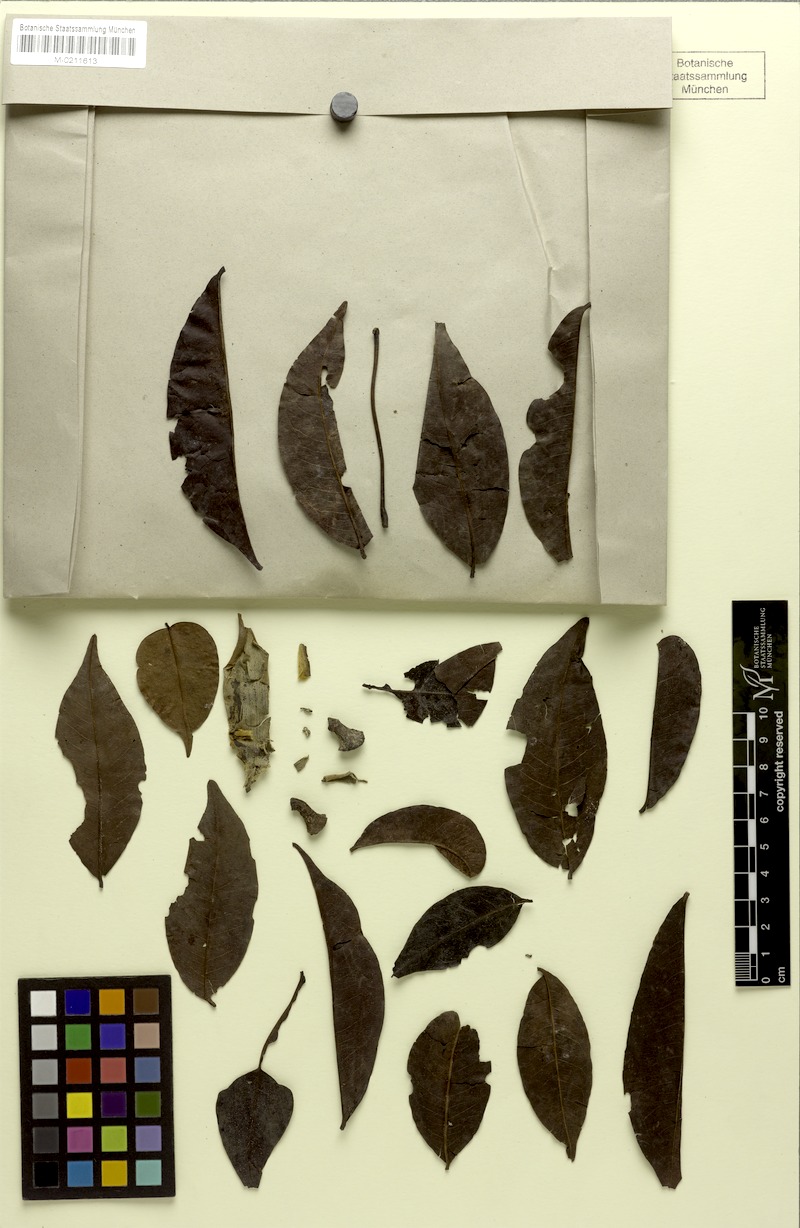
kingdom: Plantae
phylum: Tracheophyta
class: Magnoliopsida
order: Malvales
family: Malvaceae
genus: Ceiba
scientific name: Ceiba samauma
